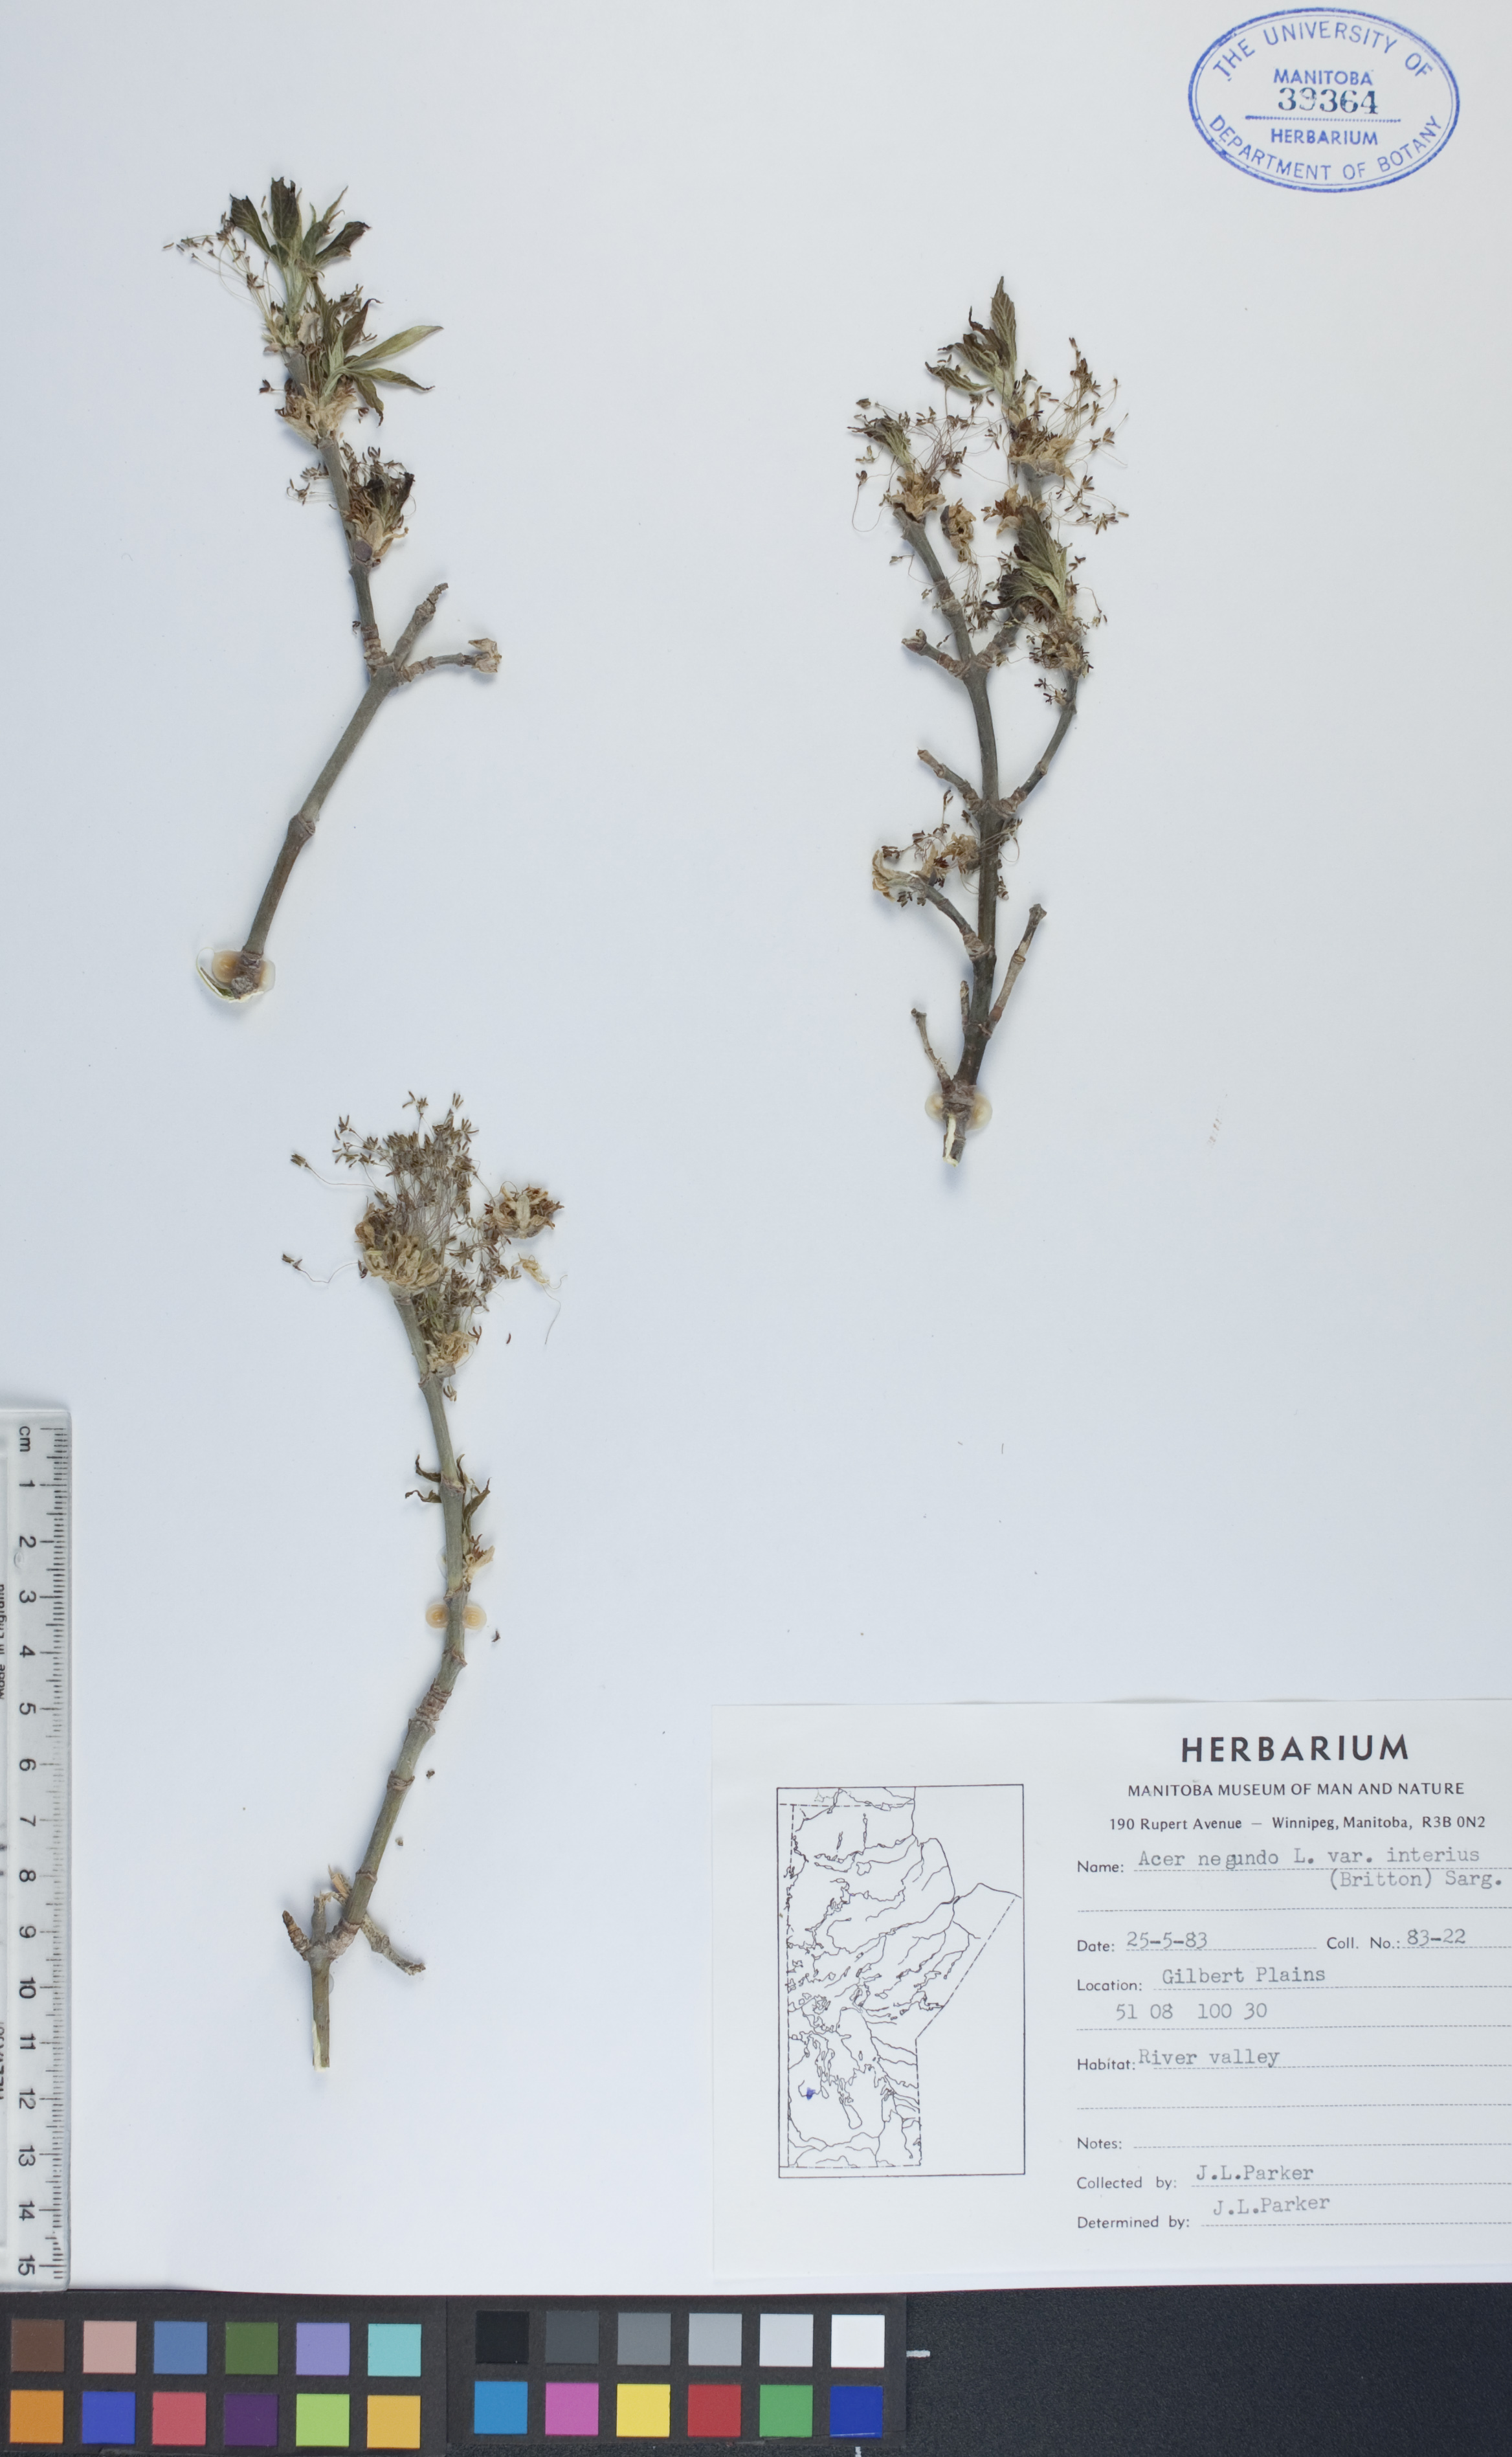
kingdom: Plantae
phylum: Tracheophyta
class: Magnoliopsida
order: Sapindales
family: Sapindaceae
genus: Acer
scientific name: Acer negundo
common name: Ashleaf maple
